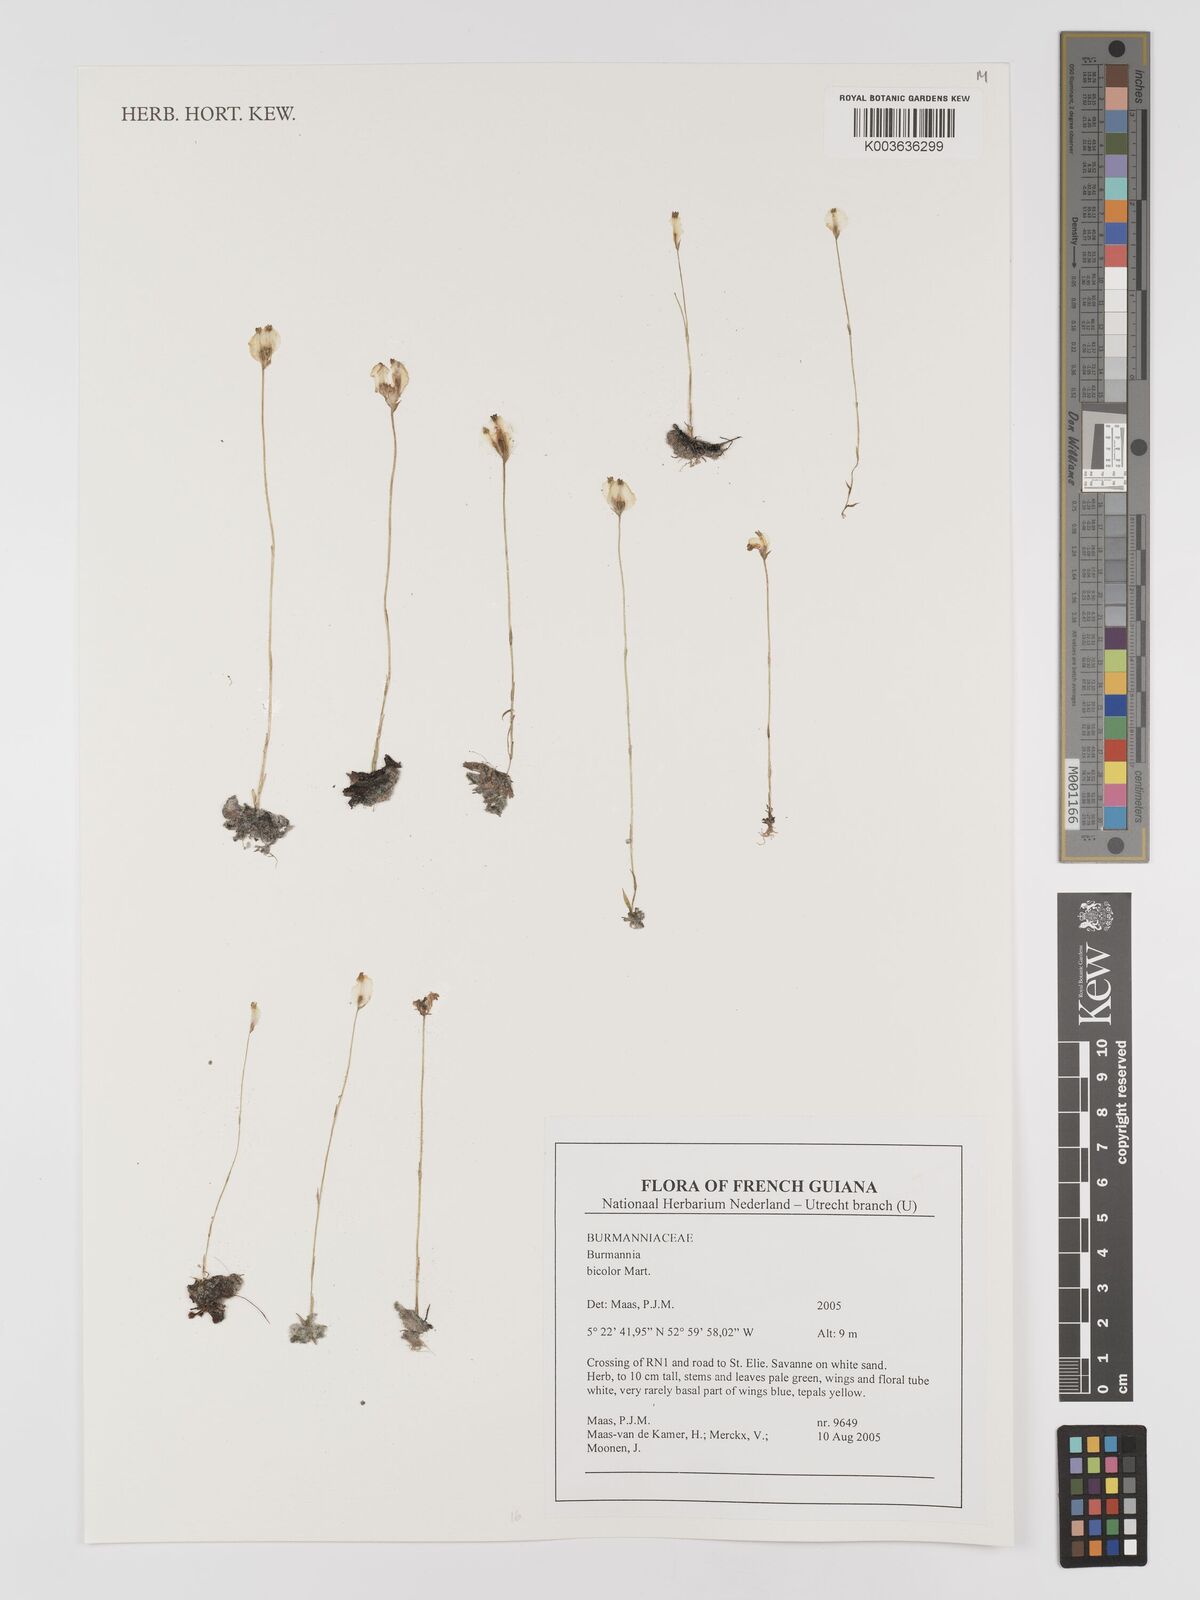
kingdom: Plantae
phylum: Tracheophyta
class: Liliopsida
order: Dioscoreales
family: Burmanniaceae
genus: Burmannia
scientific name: Burmannia bicolor
